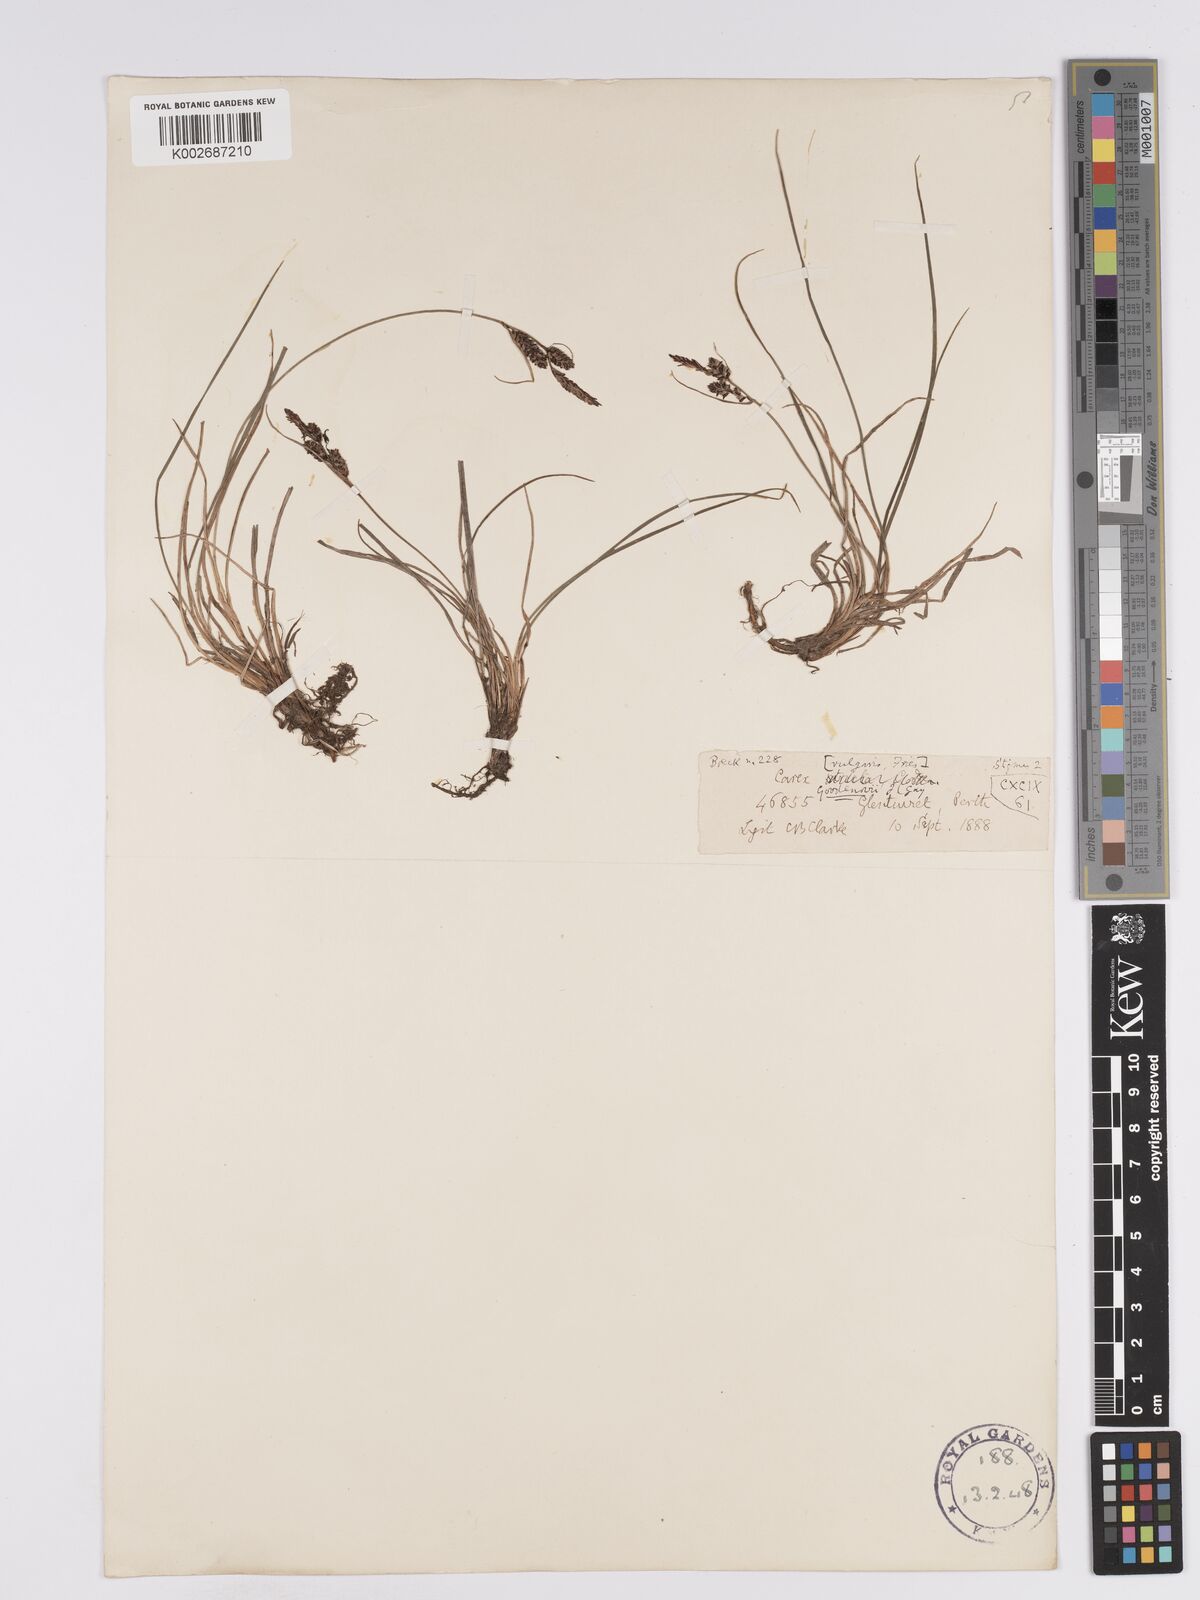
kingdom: Plantae
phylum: Tracheophyta
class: Liliopsida
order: Poales
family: Cyperaceae
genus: Carex
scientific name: Carex nigra
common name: Common sedge
